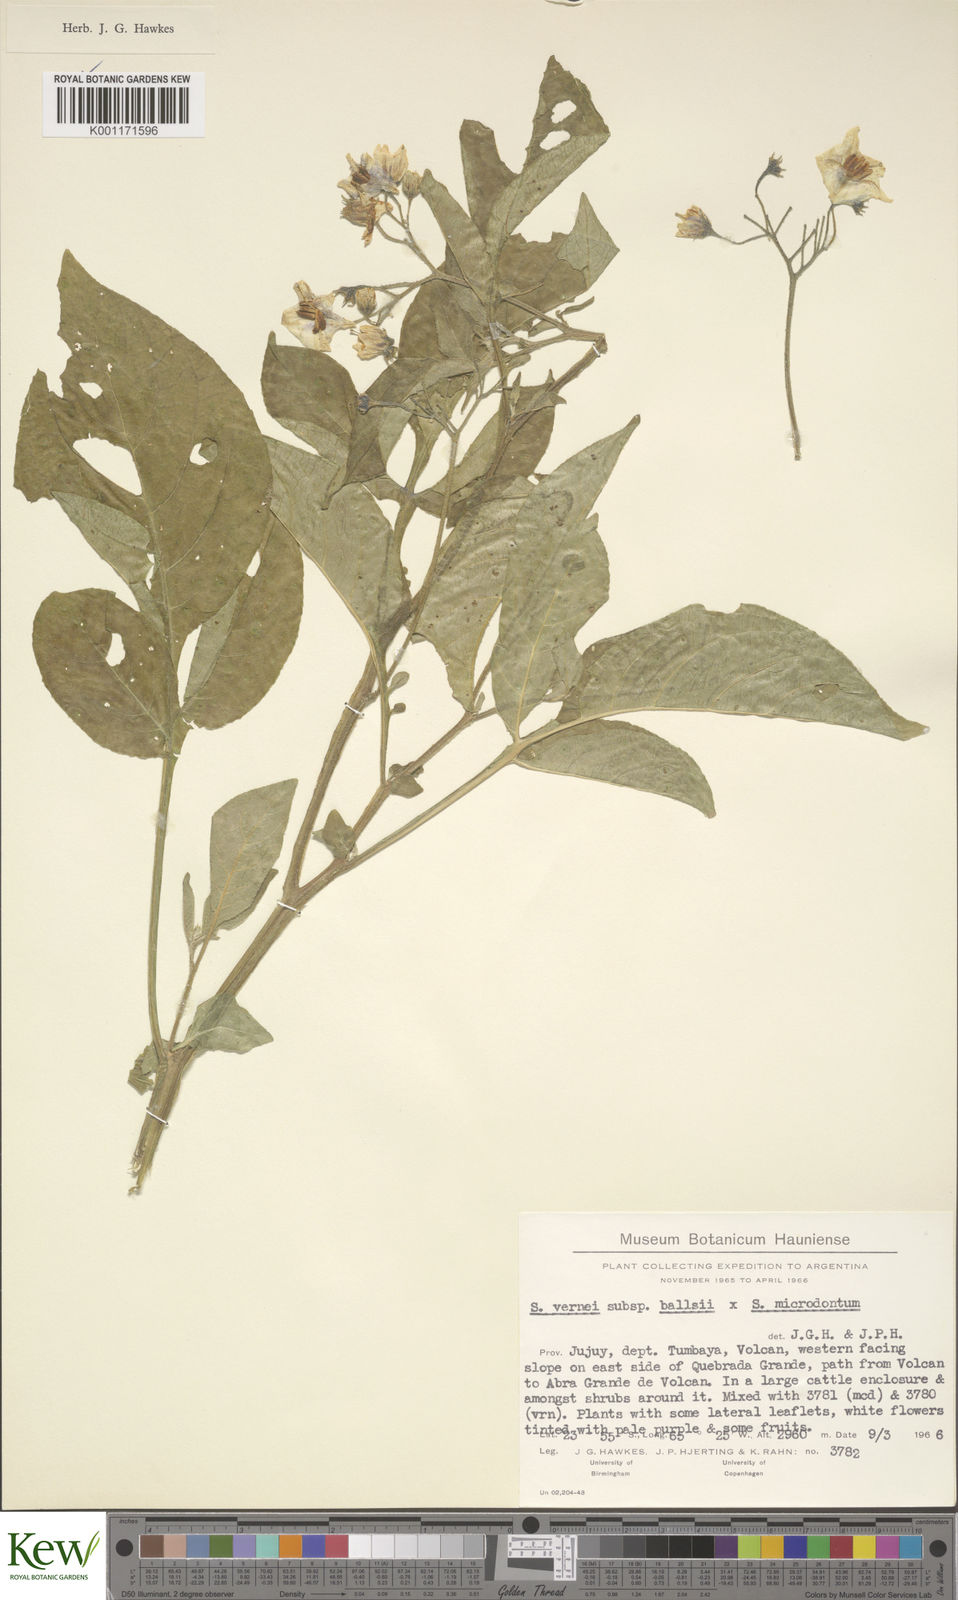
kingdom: Plantae
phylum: Tracheophyta
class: Magnoliopsida
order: Solanales
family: Solanaceae
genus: Solanum
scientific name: Solanum vernei
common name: Purple potato
